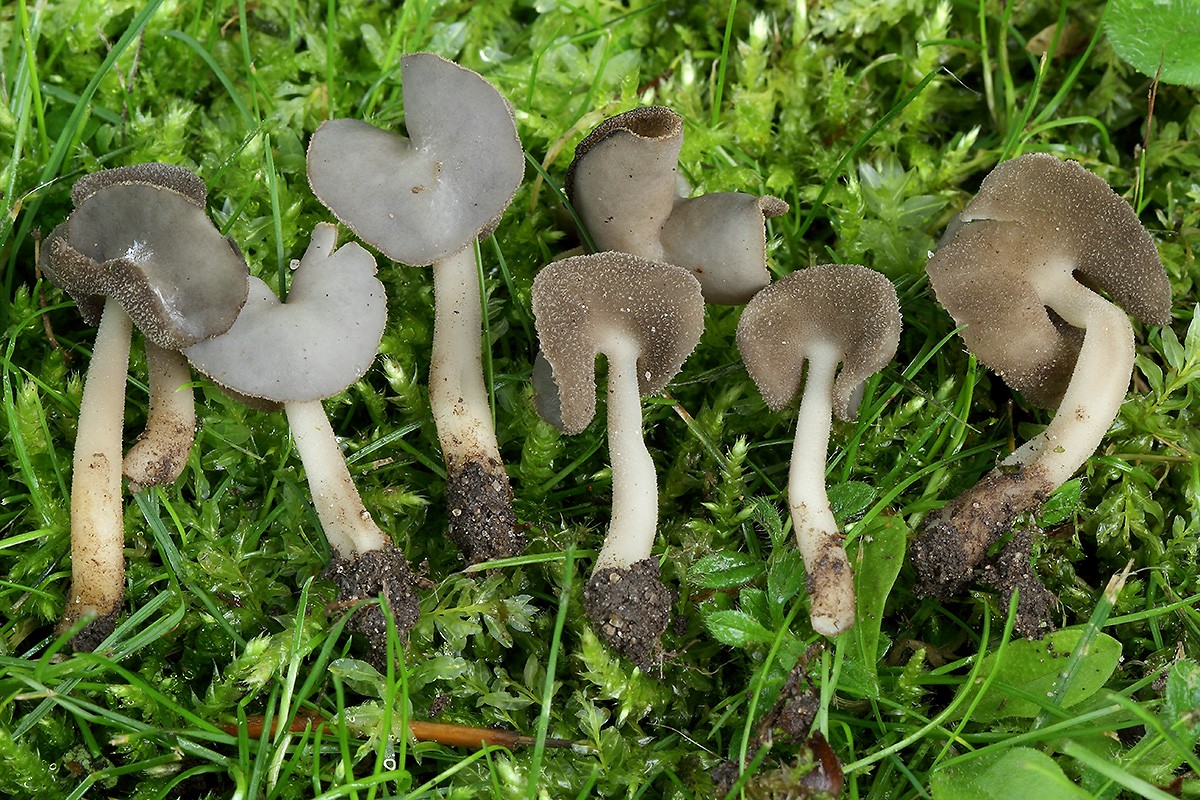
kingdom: Fungi
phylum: Ascomycota
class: Pezizomycetes
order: Pezizales
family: Helvellaceae
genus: Helvella
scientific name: Helvella sublicia
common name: saddel-foldhat
